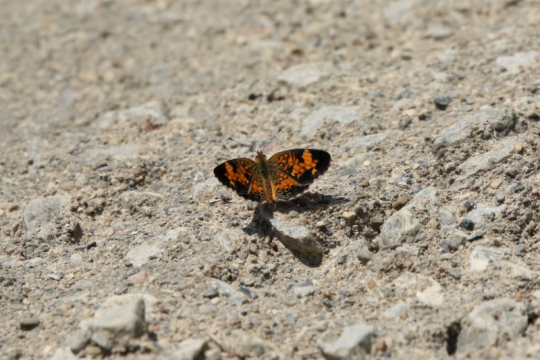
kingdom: Animalia
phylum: Arthropoda
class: Insecta
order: Lepidoptera
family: Nymphalidae
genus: Phyciodes
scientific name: Phyciodes tharos
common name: Northern Crescent
